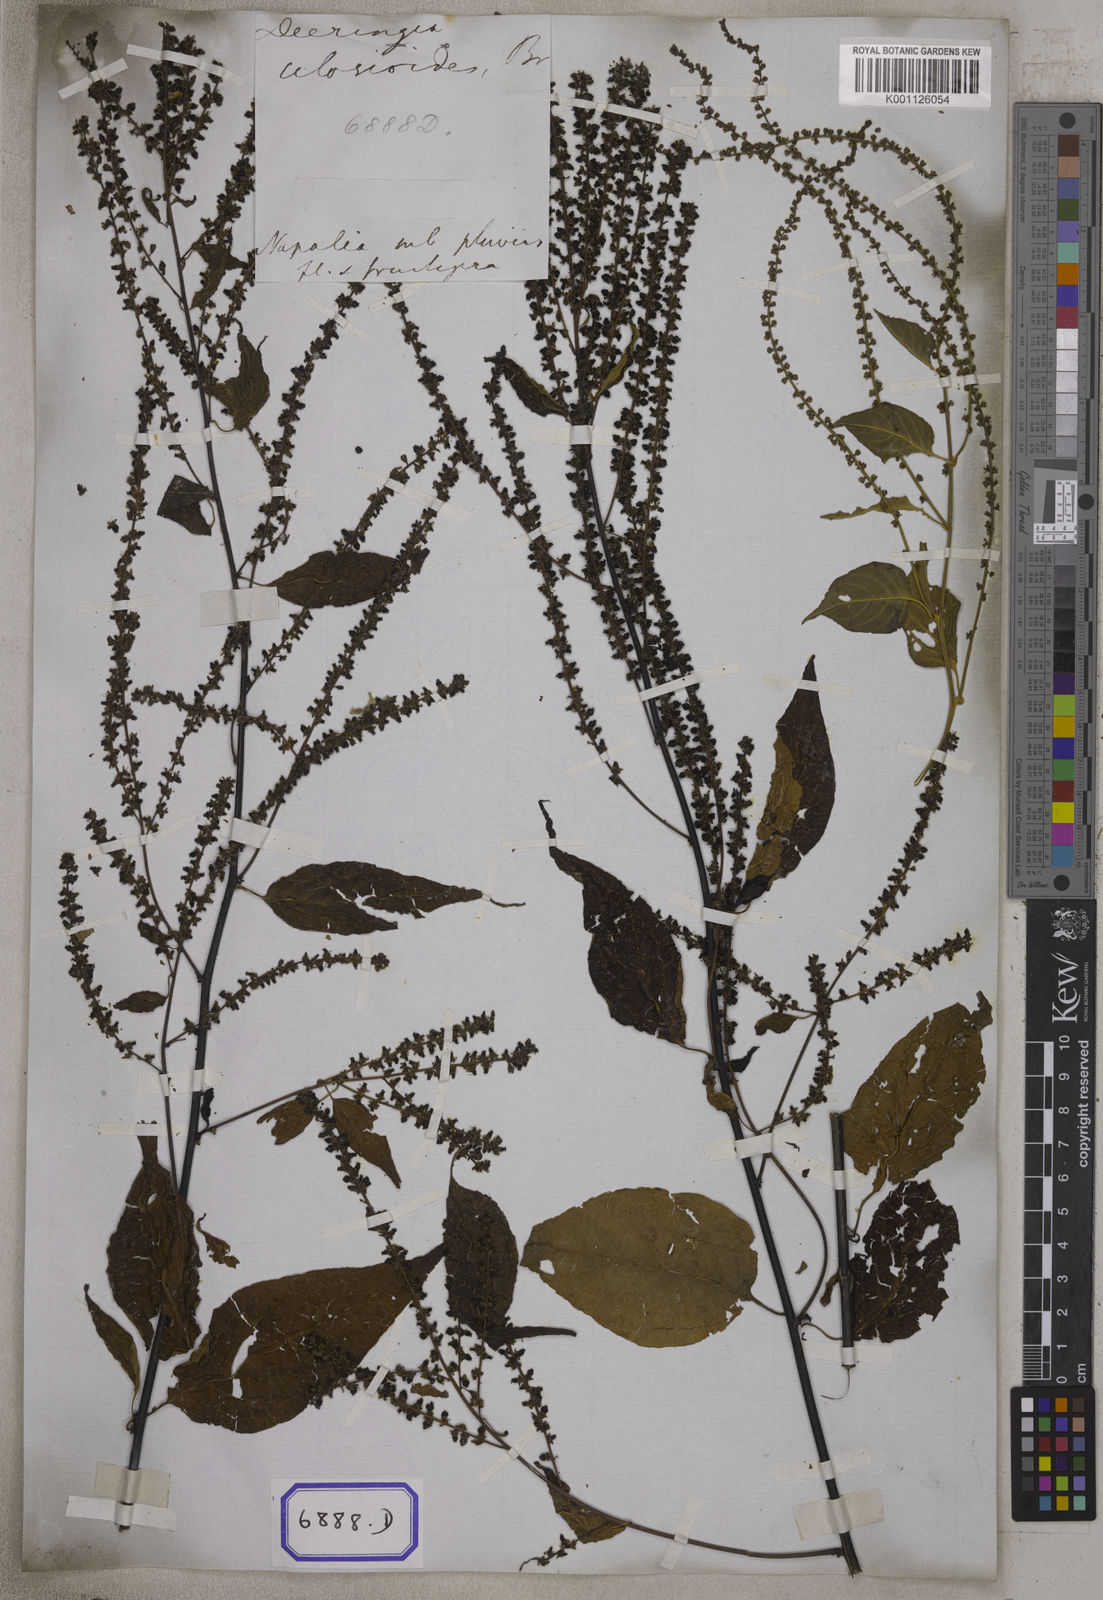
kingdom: Plantae
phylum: Tracheophyta
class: Magnoliopsida
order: Caryophyllales
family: Amaranthaceae
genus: Deeringia
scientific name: Deeringia amaranthoides
